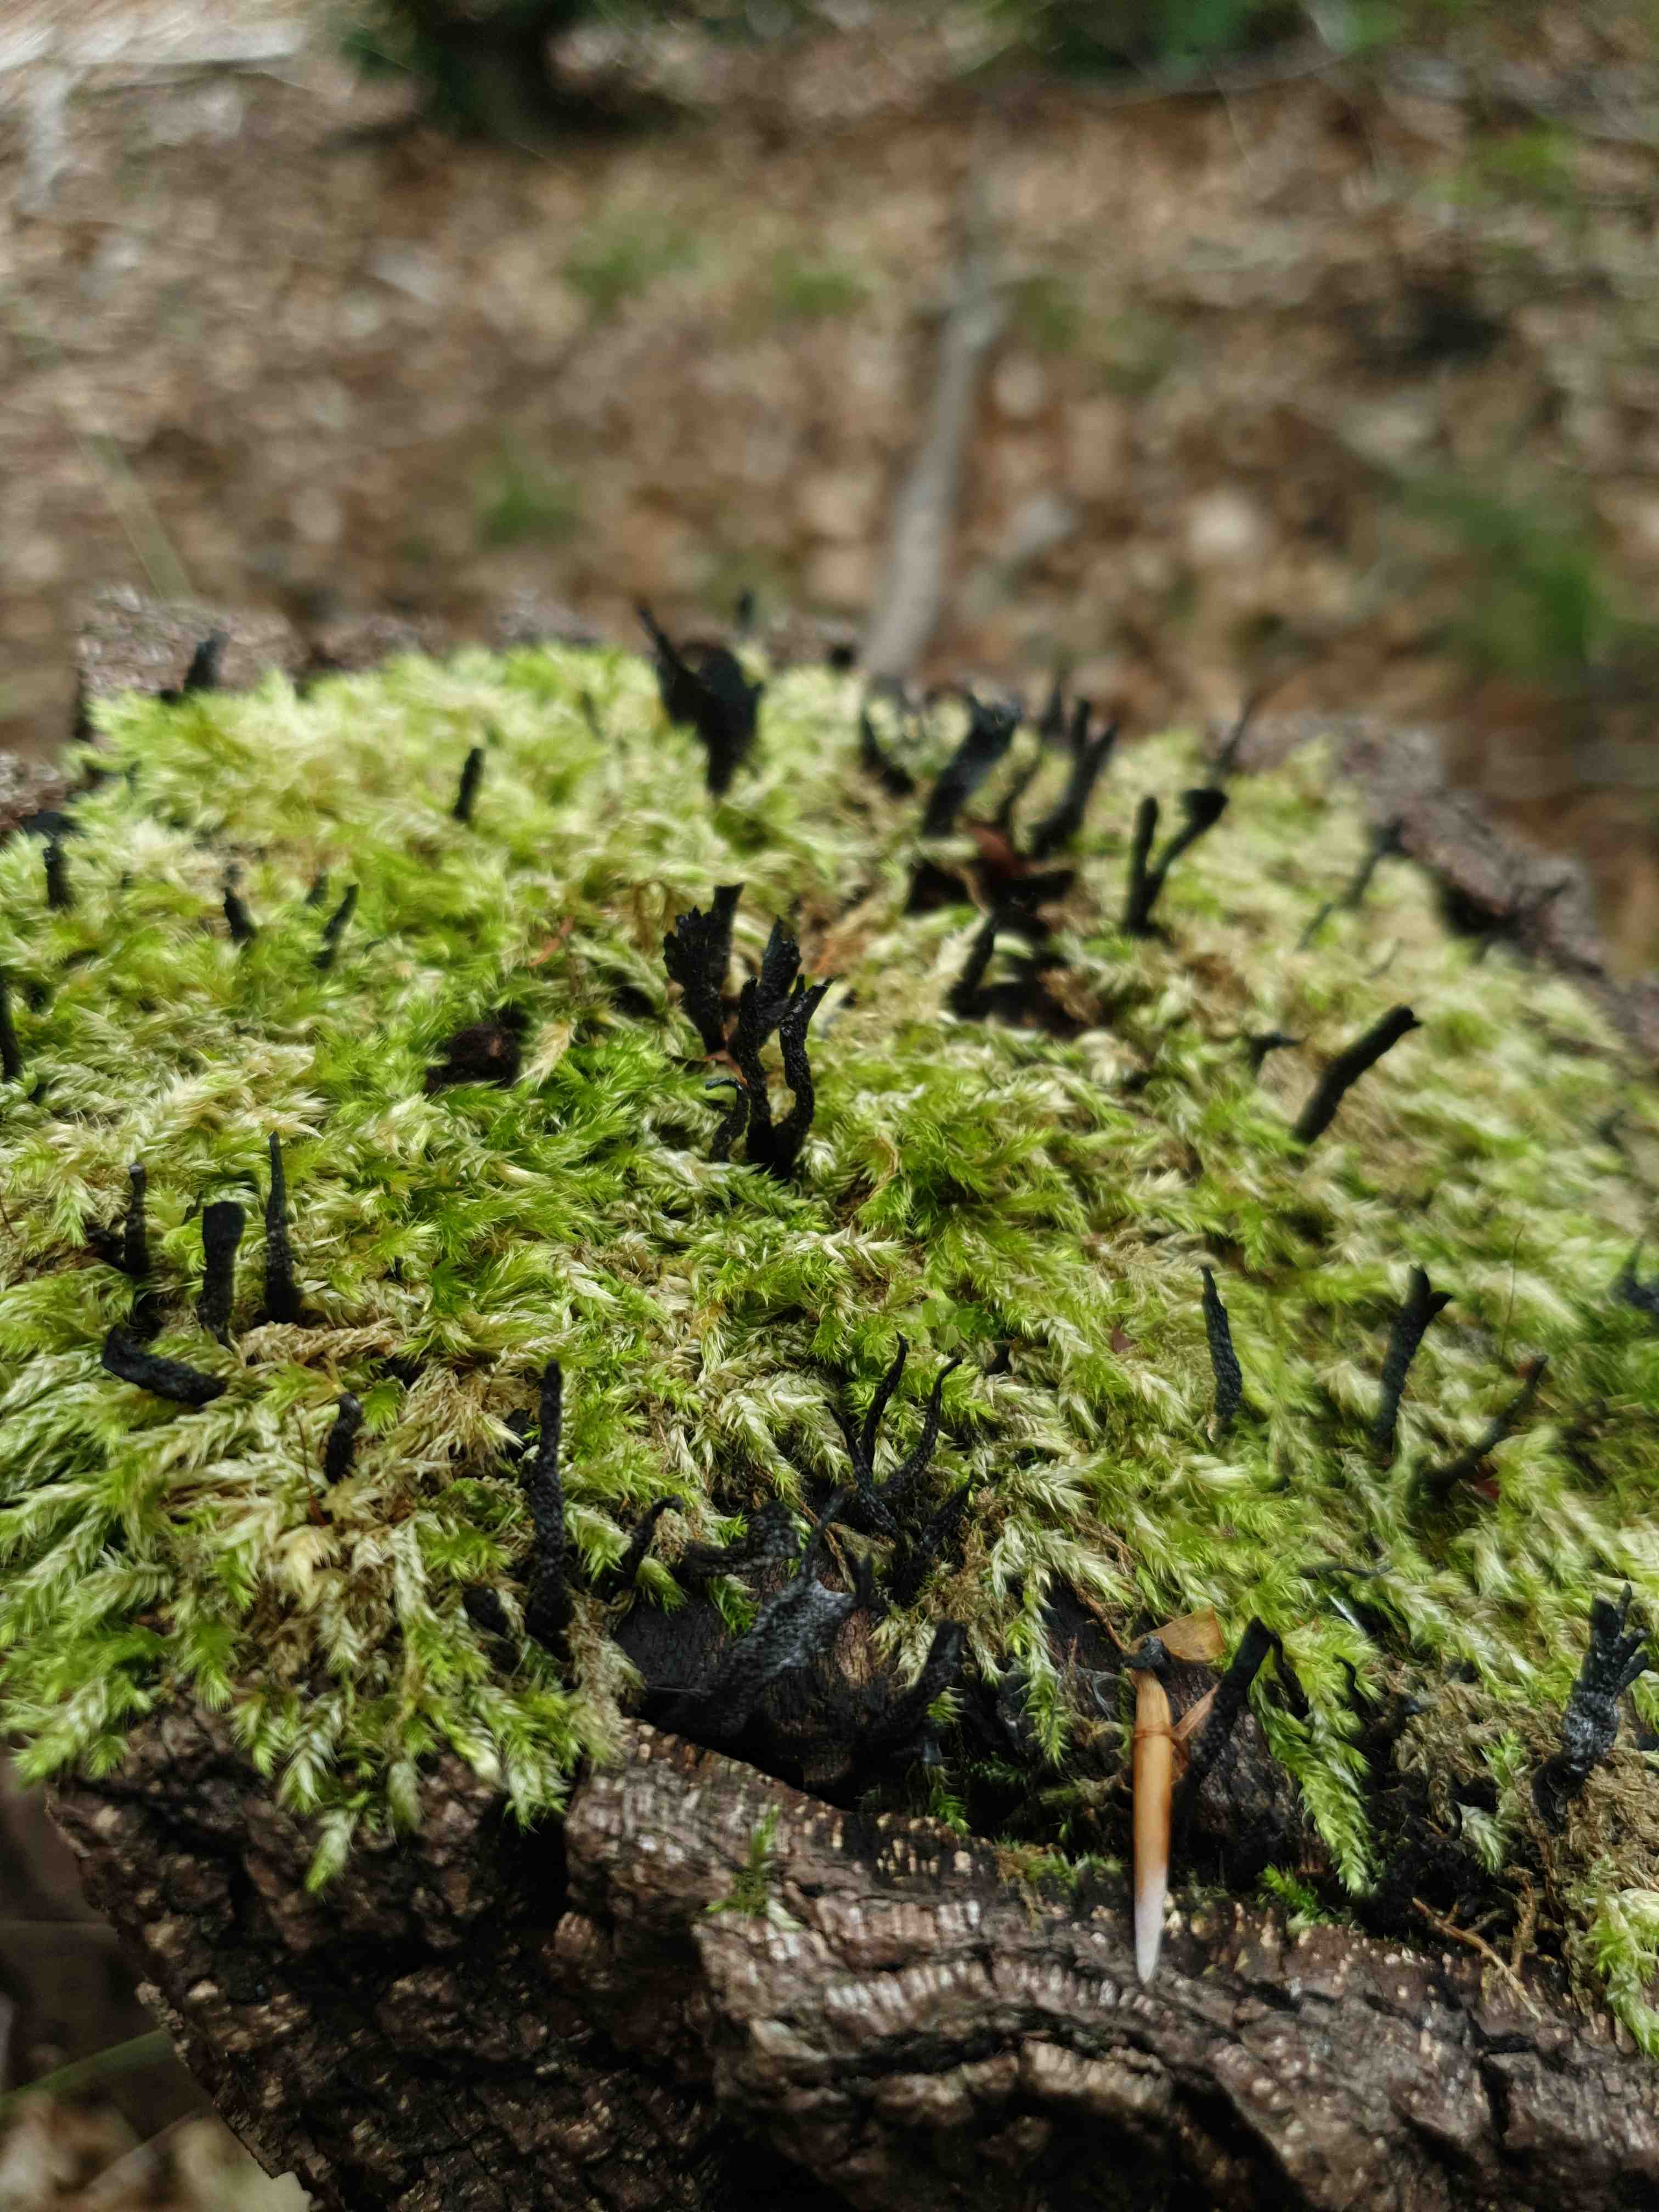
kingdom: Fungi
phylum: Ascomycota
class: Sordariomycetes
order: Xylariales
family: Xylariaceae
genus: Xylaria
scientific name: Xylaria hypoxylon
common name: grenet stødsvamp
